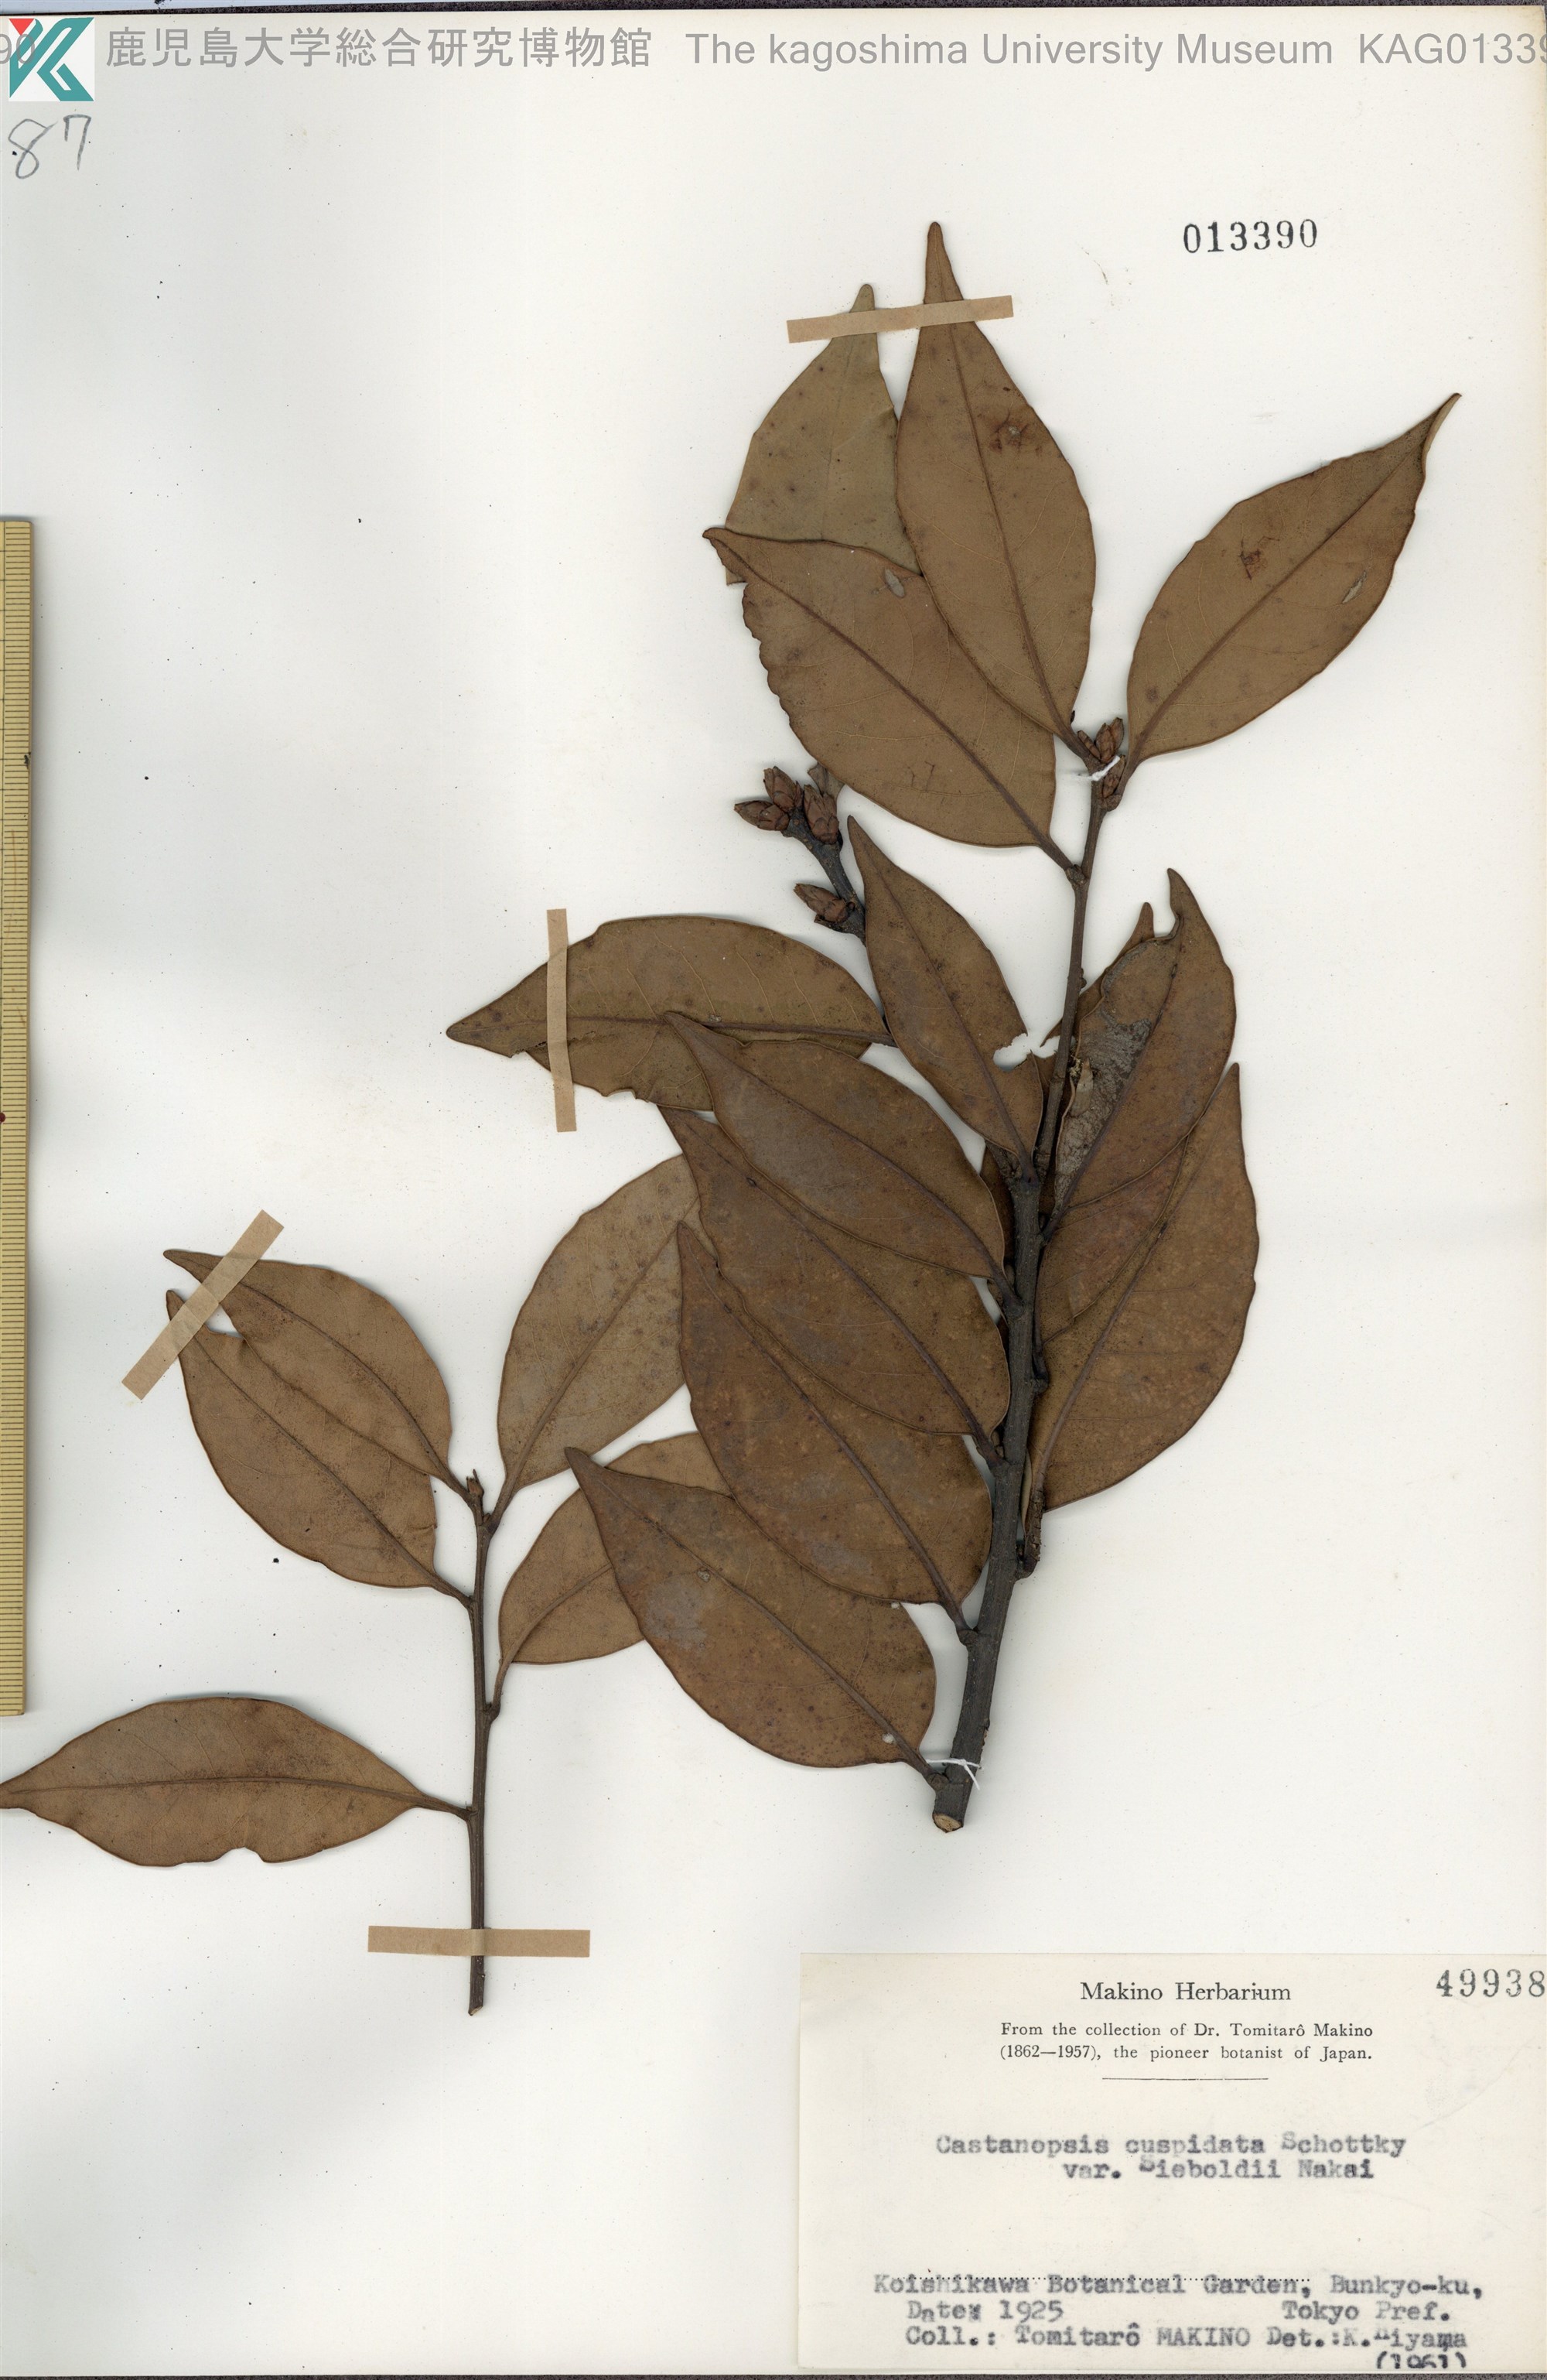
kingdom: Plantae
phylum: Tracheophyta
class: Magnoliopsida
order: Fagales
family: Fagaceae
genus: Castanopsis
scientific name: Castanopsis sieboldii
